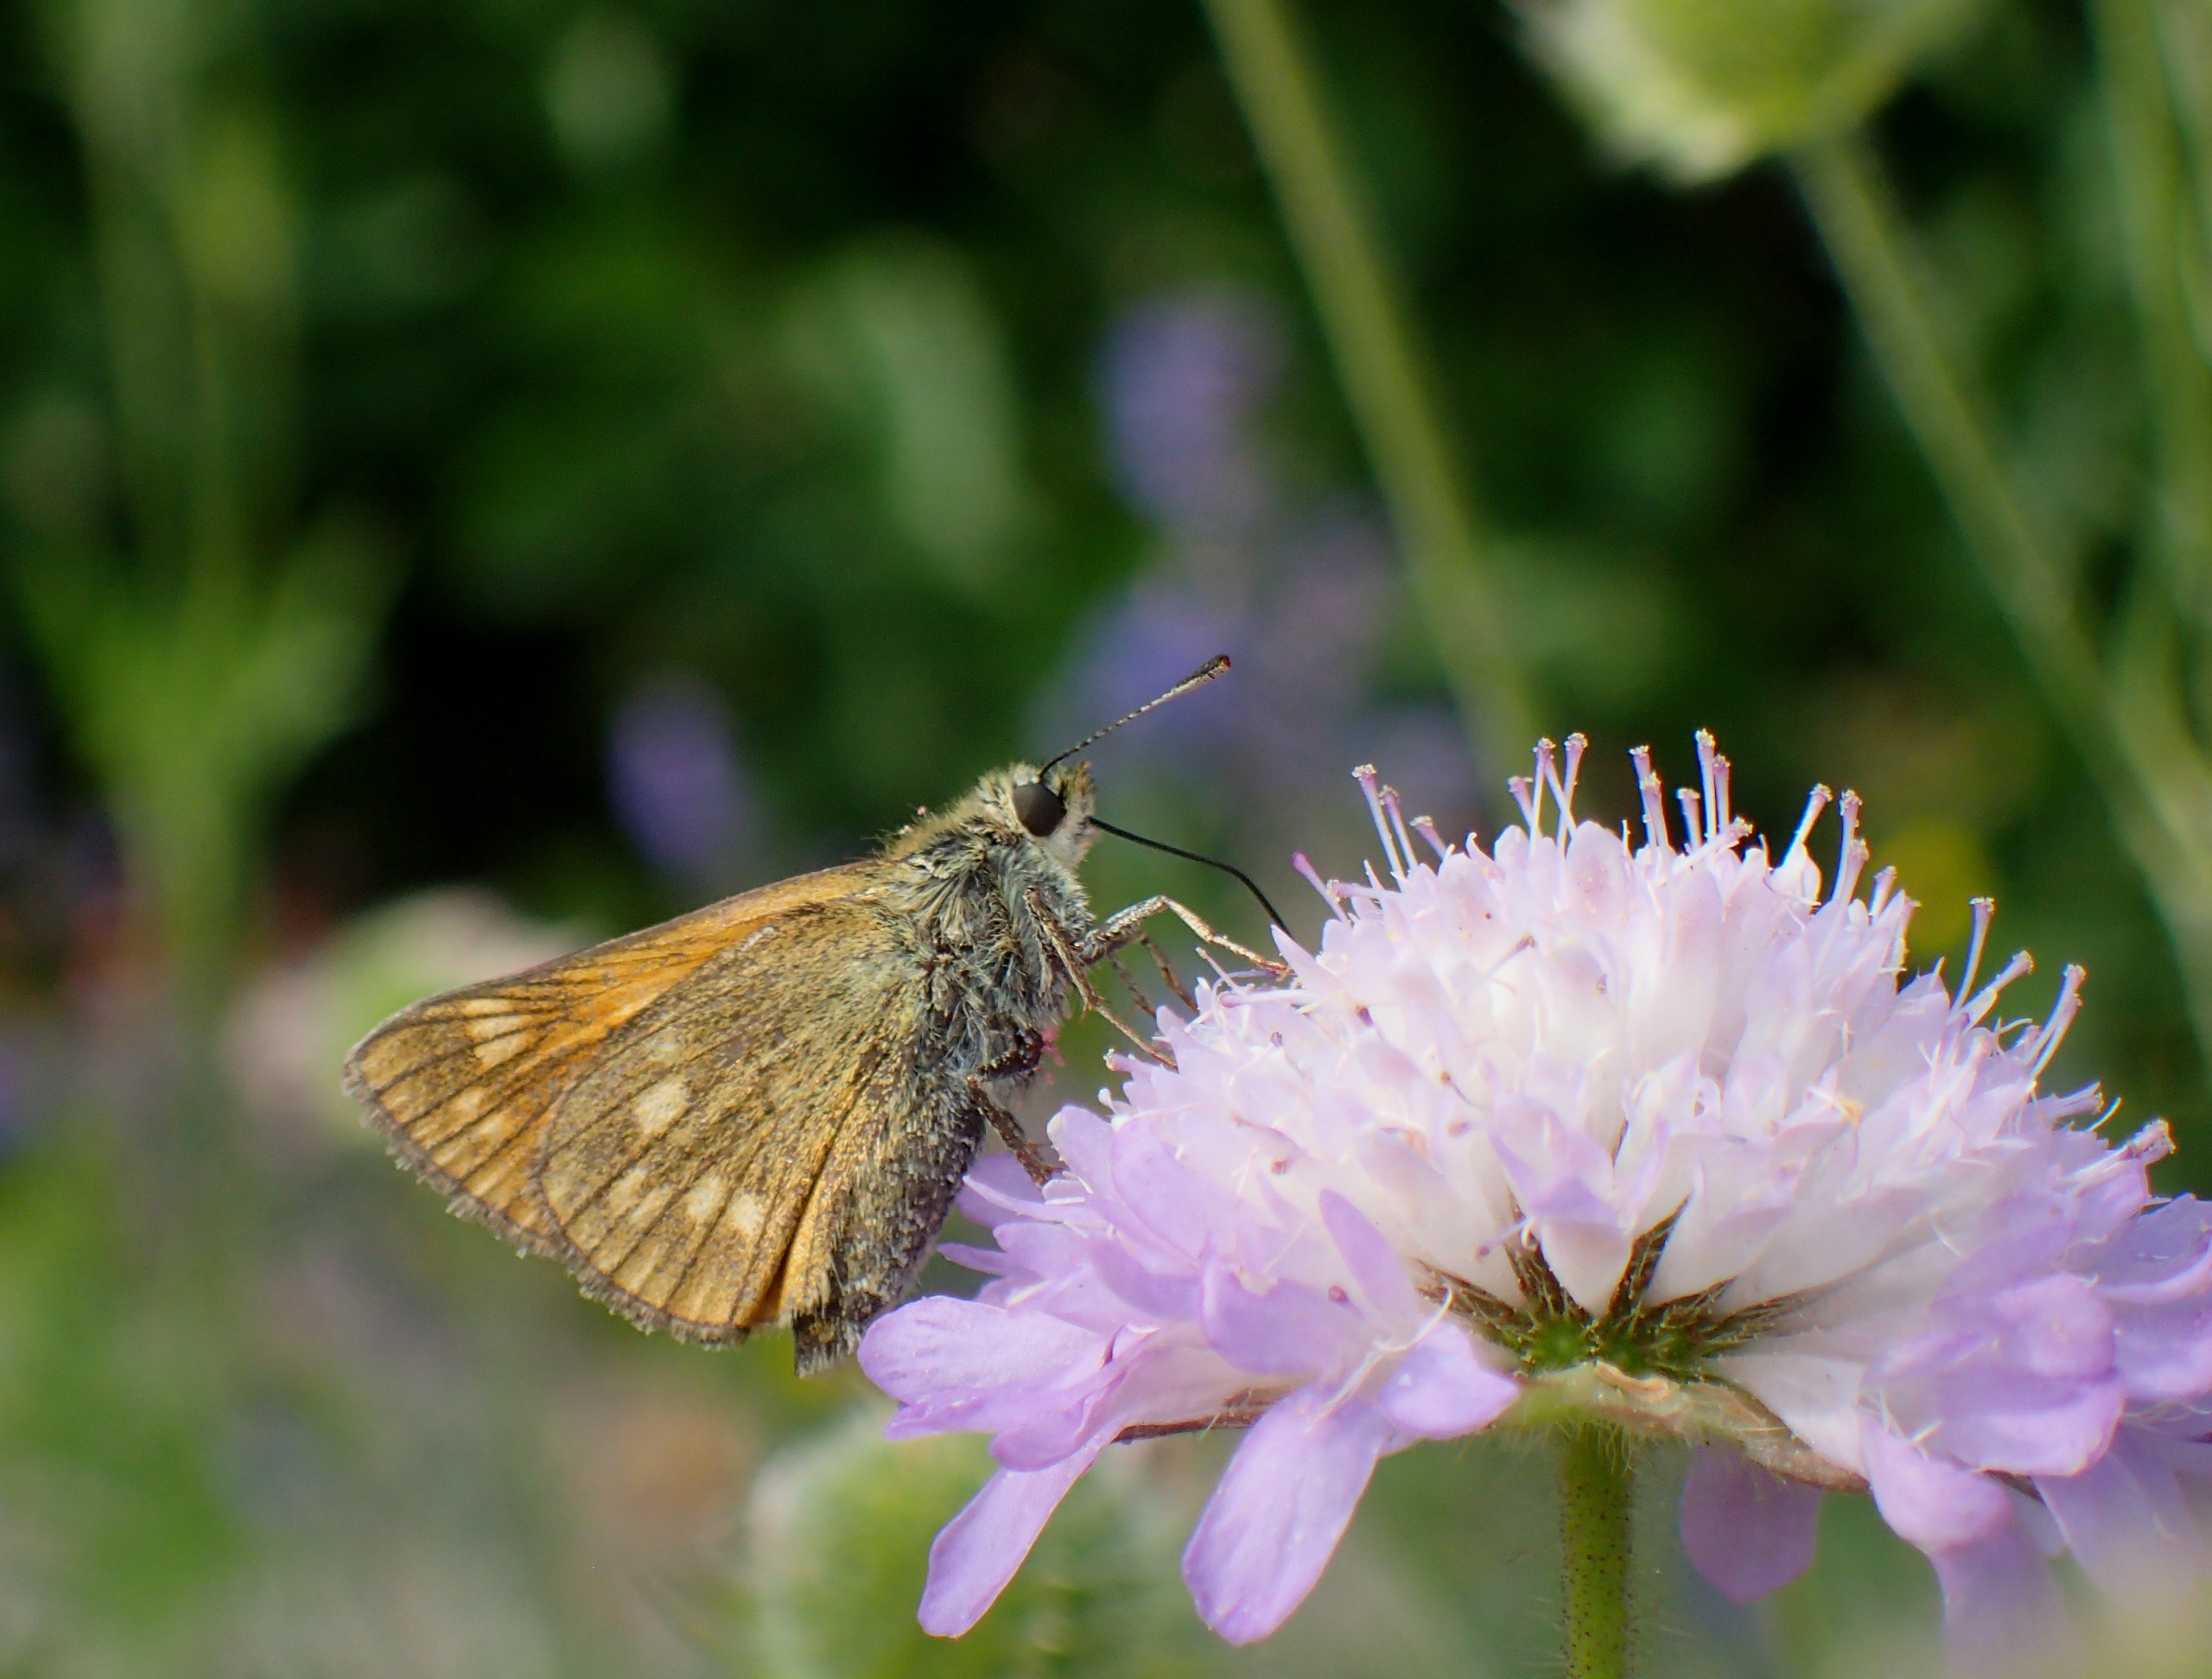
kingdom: Animalia
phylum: Arthropoda
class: Insecta
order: Lepidoptera
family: Hesperiidae
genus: Ochlodes
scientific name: Ochlodes venata
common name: Stor bredpande
